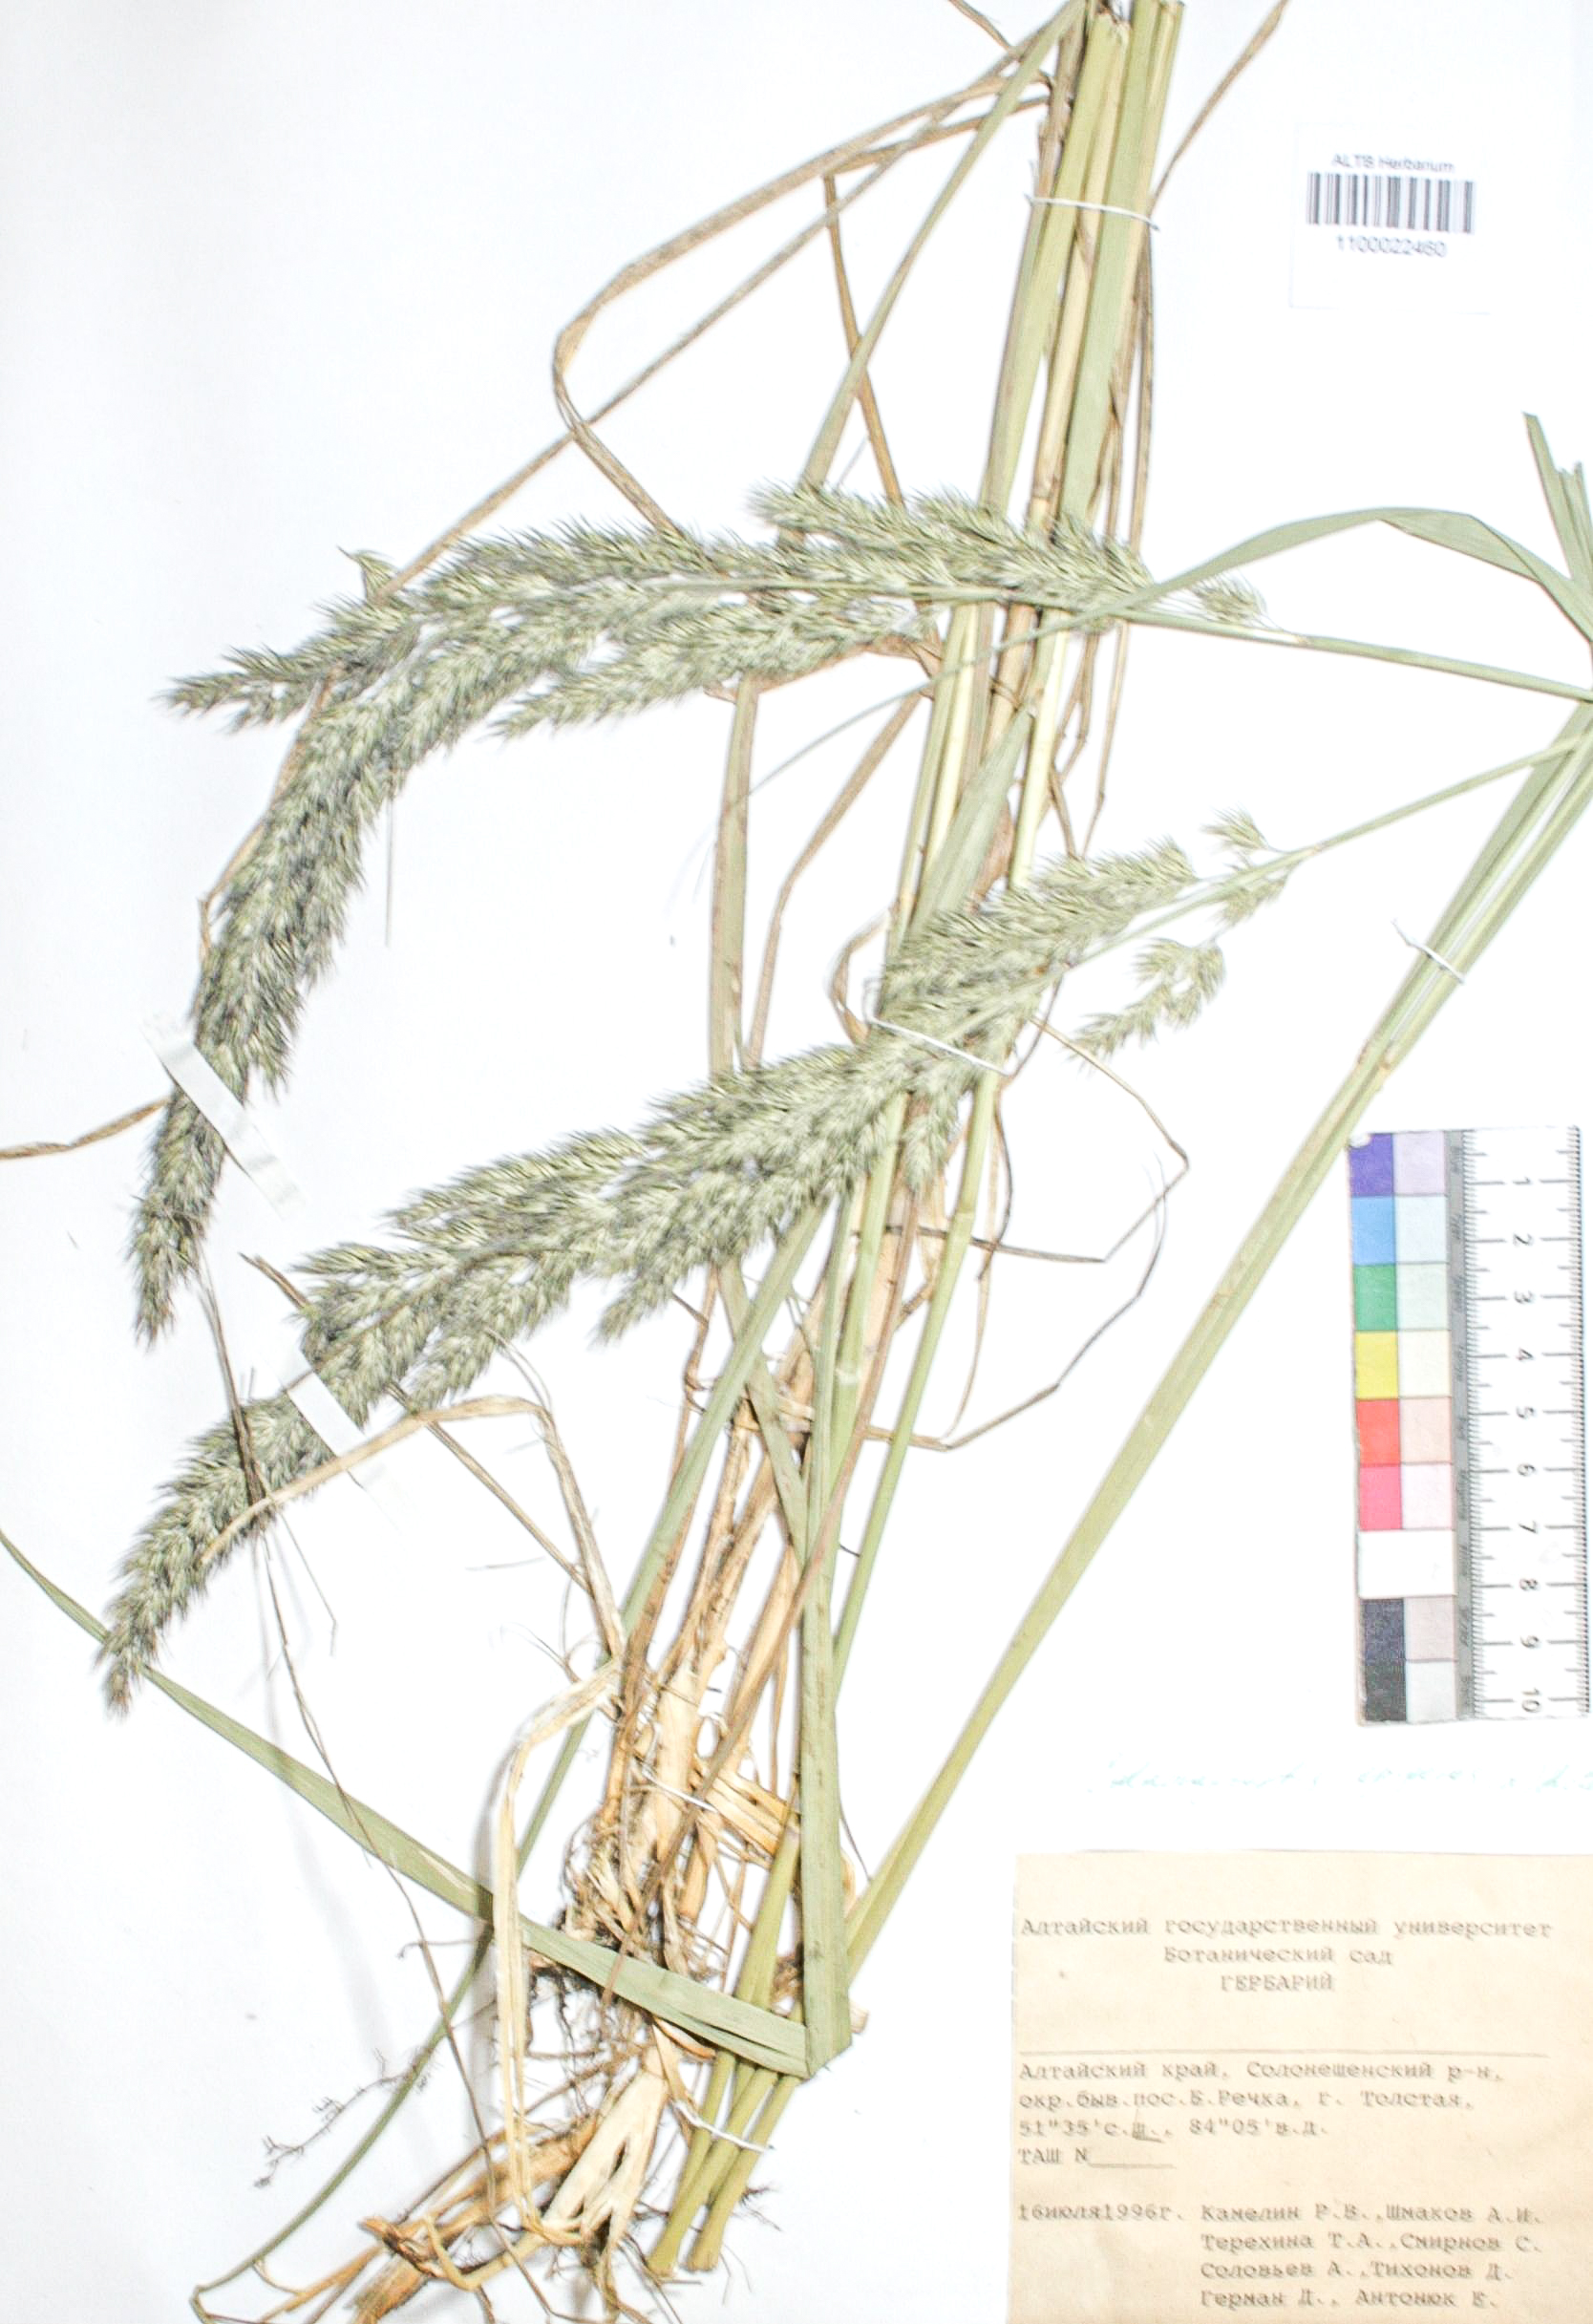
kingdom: Plantae
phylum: Tracheophyta
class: Liliopsida
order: Poales
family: Poaceae
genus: Calamagrostis
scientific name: Calamagrostis epigejos
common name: Wood small-reed
